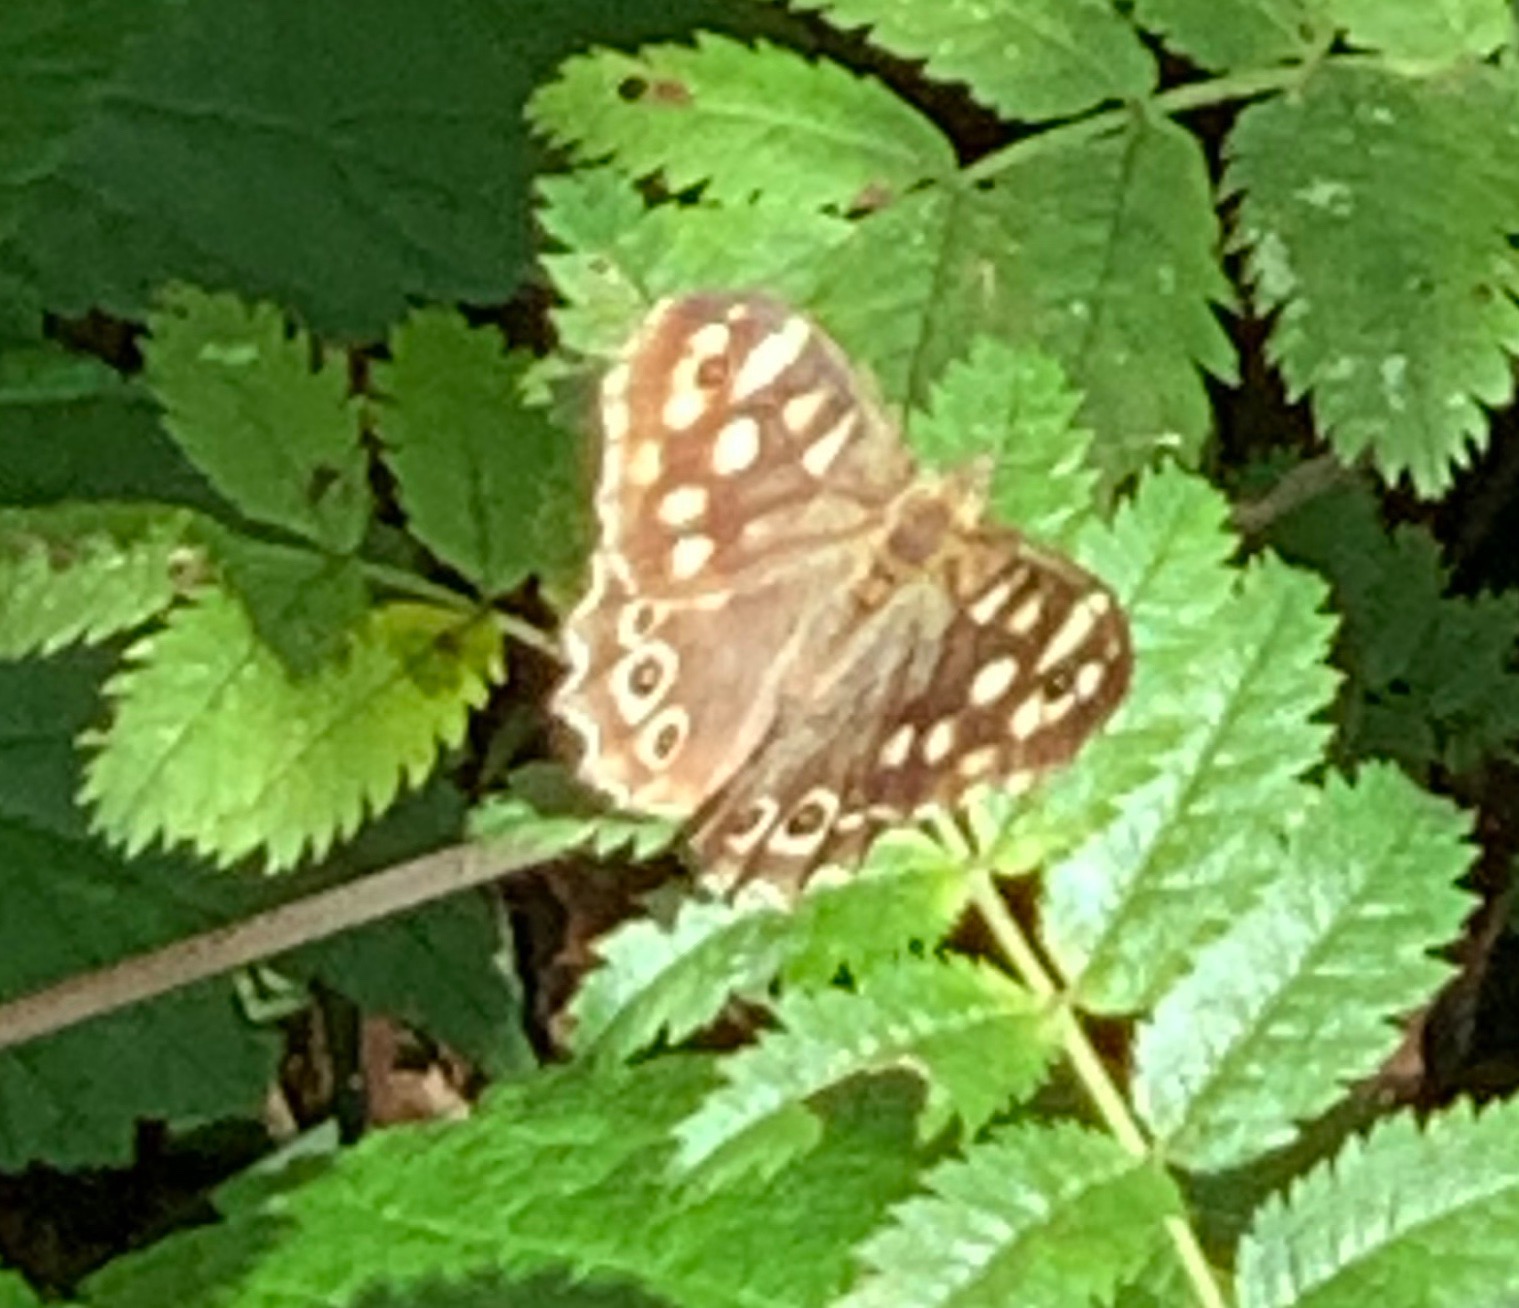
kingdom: Animalia
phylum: Arthropoda
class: Insecta
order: Lepidoptera
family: Nymphalidae
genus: Pararge
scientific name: Pararge aegeria
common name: Skovrandøje
